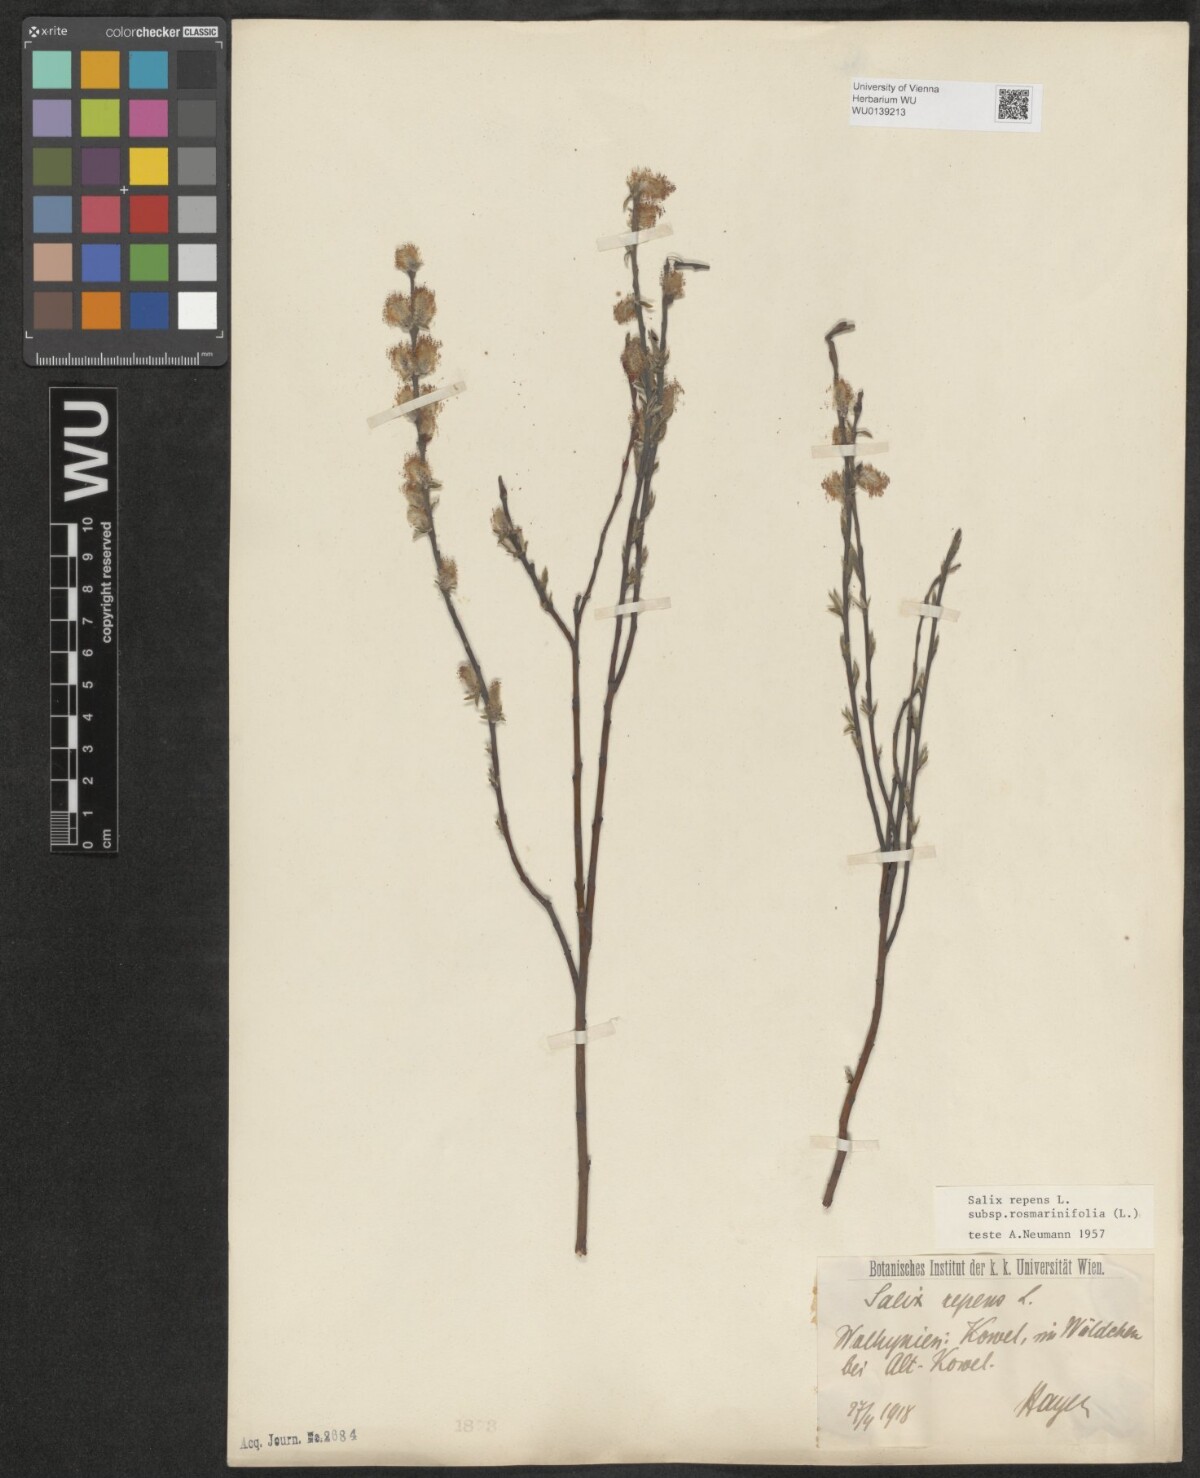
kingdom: Plantae
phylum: Tracheophyta
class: Magnoliopsida
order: Malpighiales
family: Salicaceae
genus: Salix
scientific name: Salix repens
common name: Creeping willow
